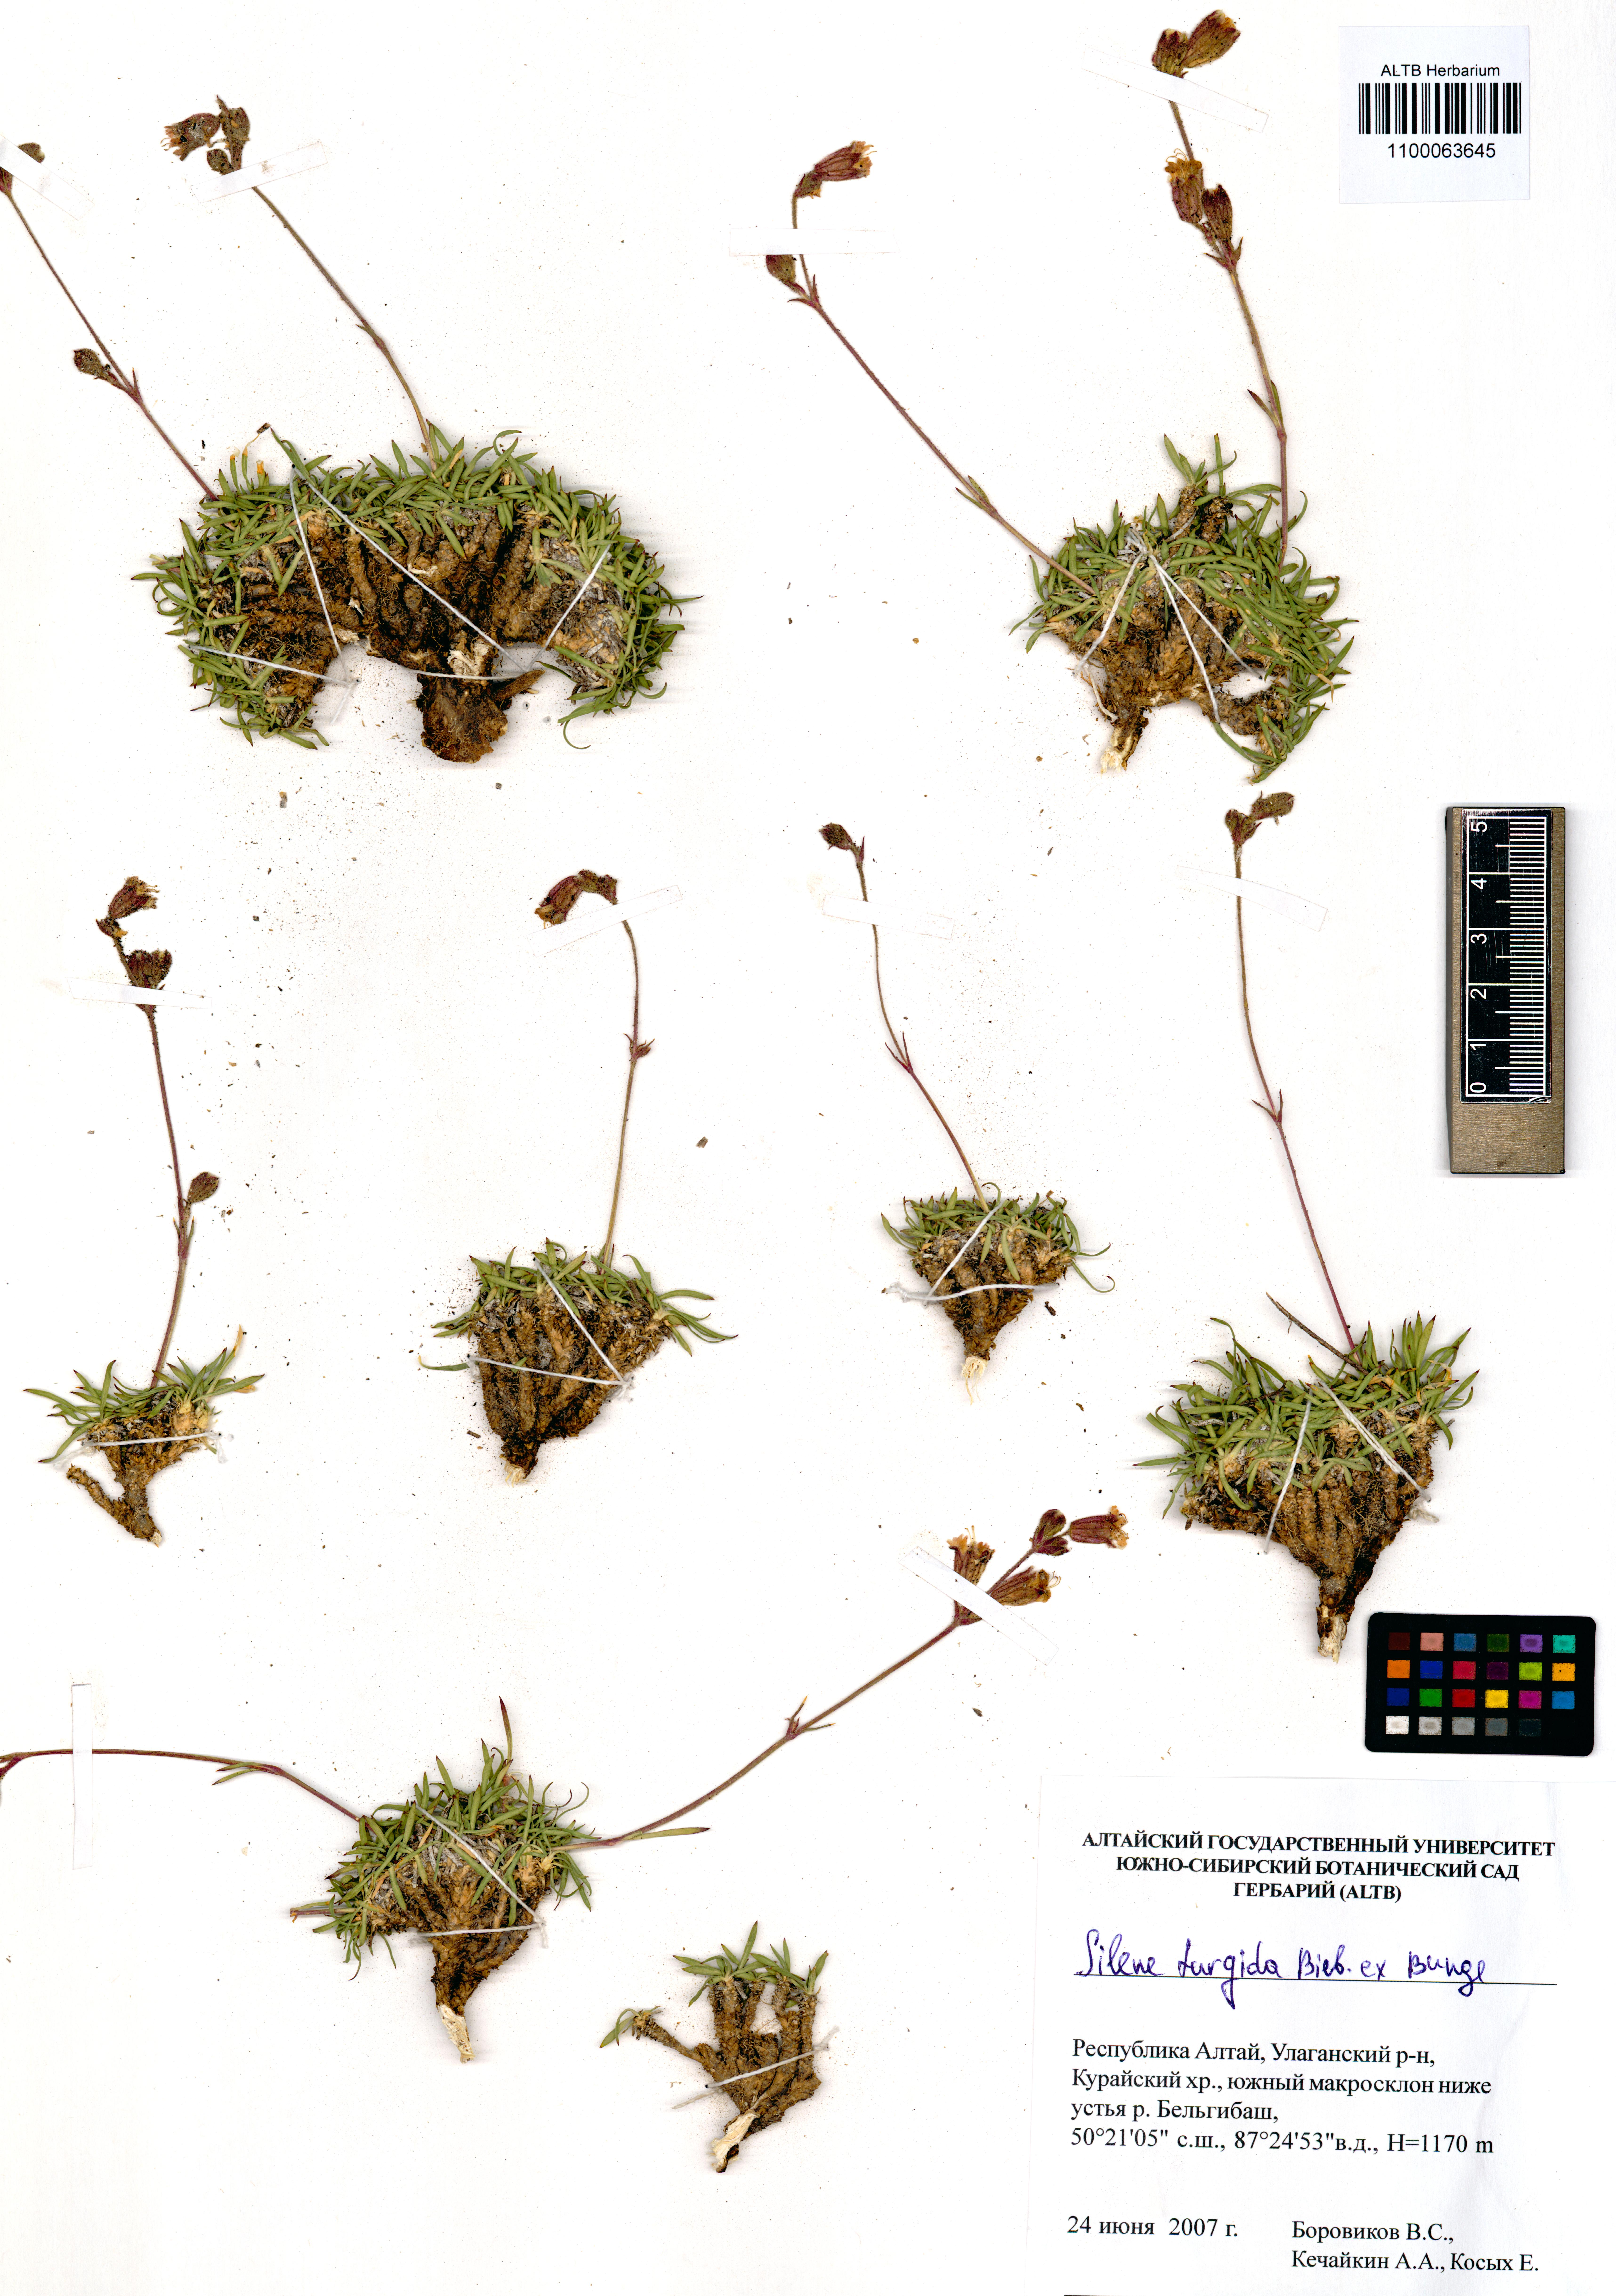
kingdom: Plantae
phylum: Tracheophyta
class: Magnoliopsida
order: Caryophyllales
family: Caryophyllaceae
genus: Silene
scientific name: Silene turgida
